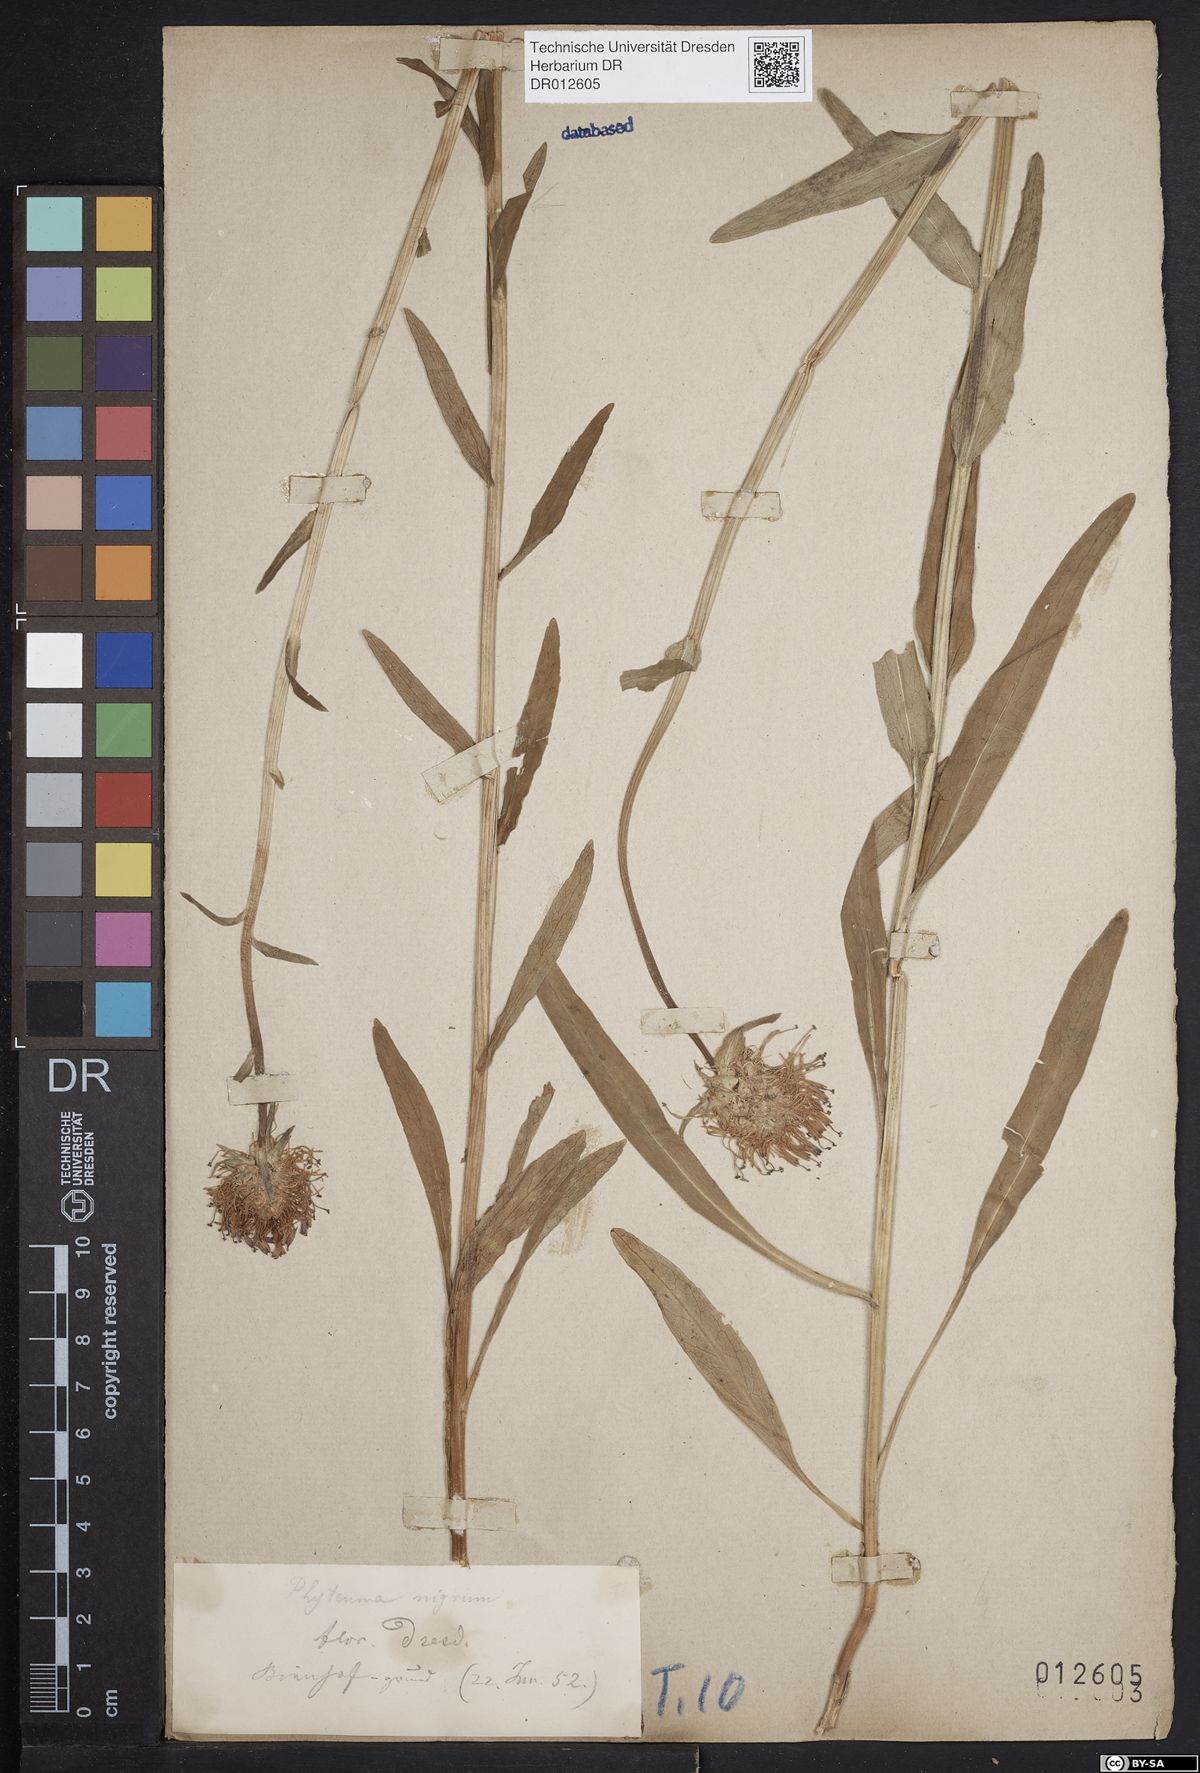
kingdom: Plantae
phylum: Tracheophyta
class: Magnoliopsida
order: Asterales
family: Campanulaceae
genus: Phyteuma
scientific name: Phyteuma nigrum
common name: Black rampion
